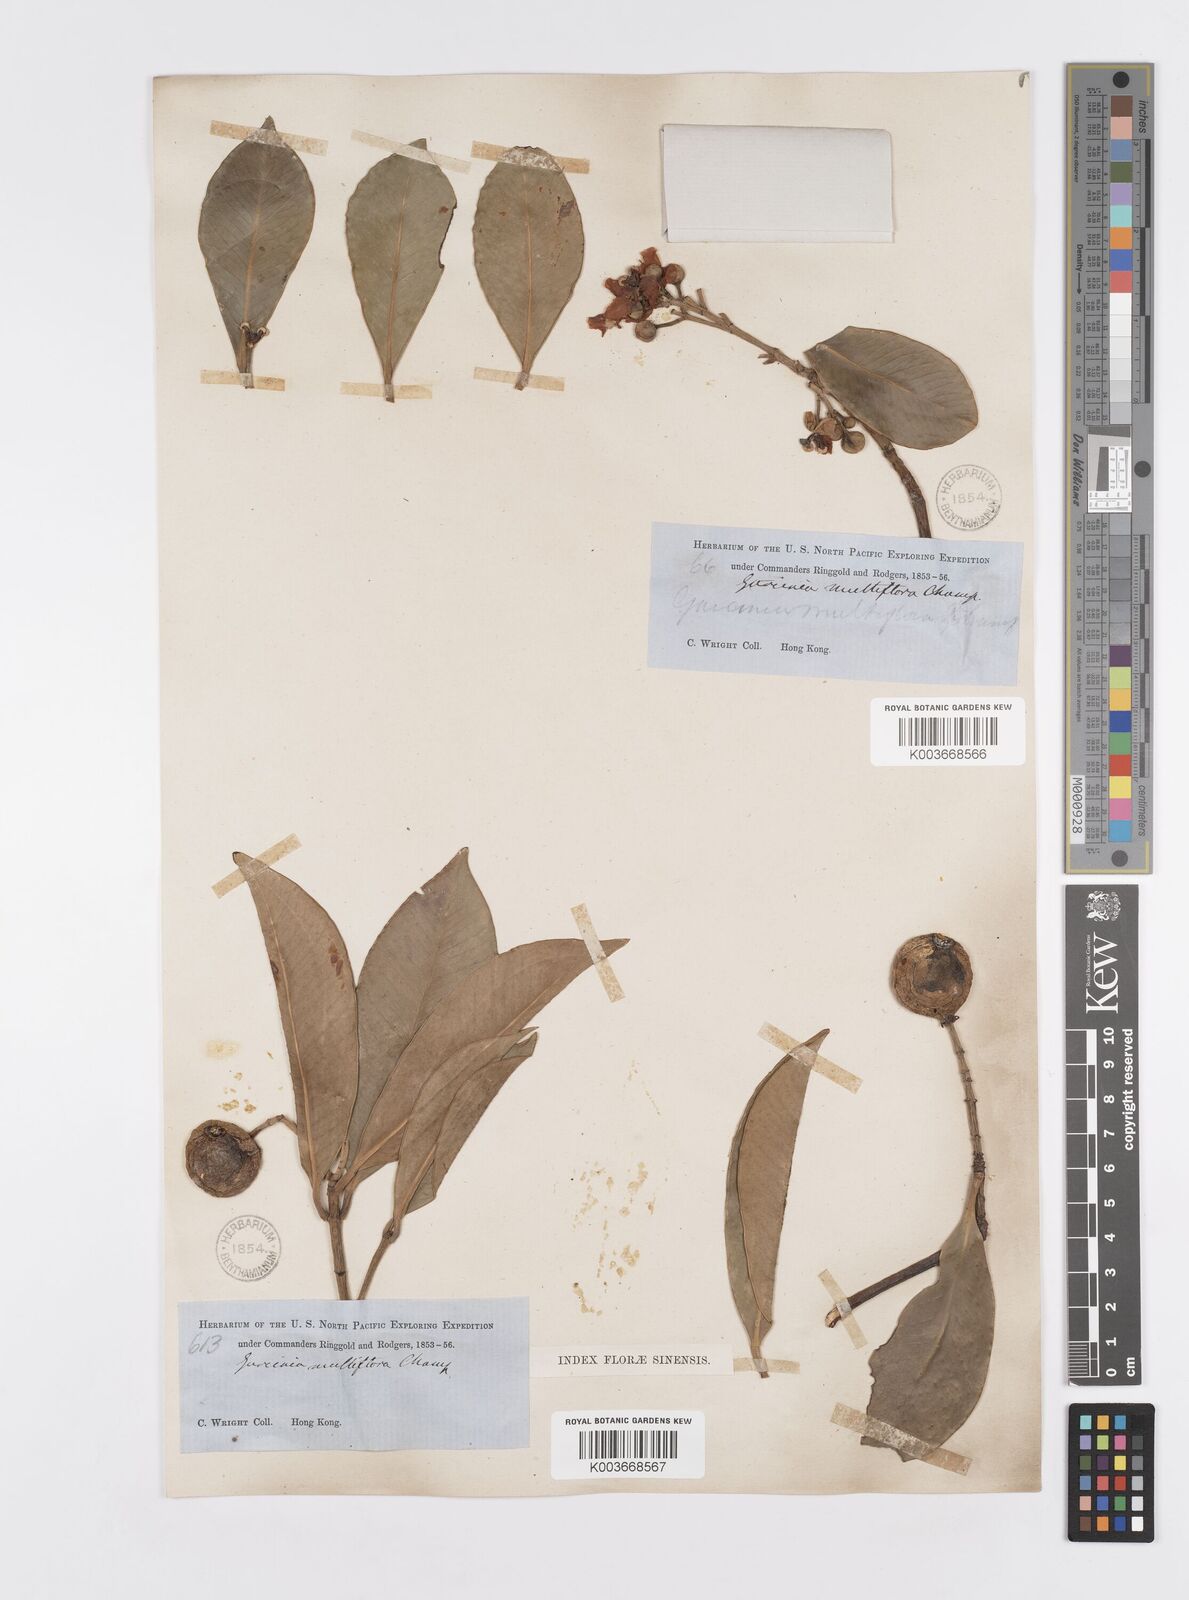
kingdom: Plantae
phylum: Tracheophyta
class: Magnoliopsida
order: Malpighiales
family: Clusiaceae
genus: Garcinia
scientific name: Garcinia multiflora
